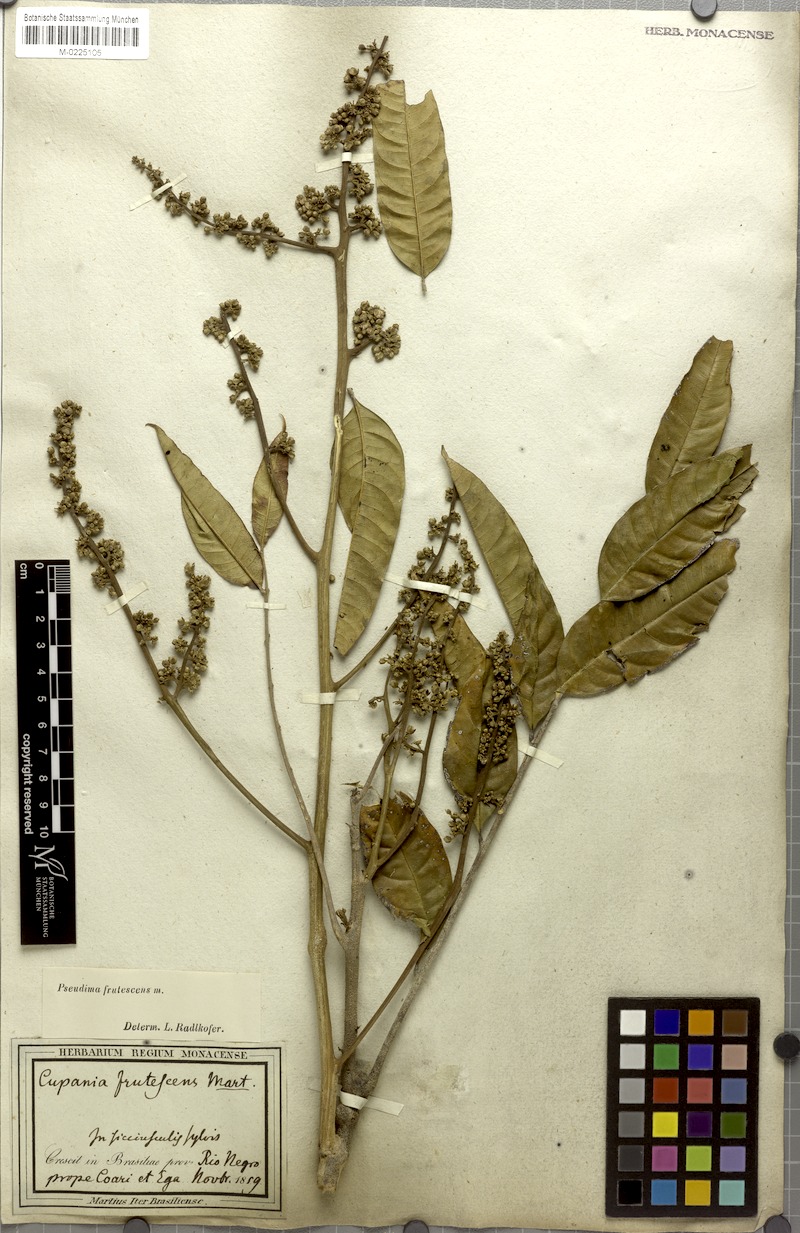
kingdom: Plantae
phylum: Tracheophyta
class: Magnoliopsida
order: Sapindales
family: Sapindaceae
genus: Pseudima
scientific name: Pseudima frutescens
